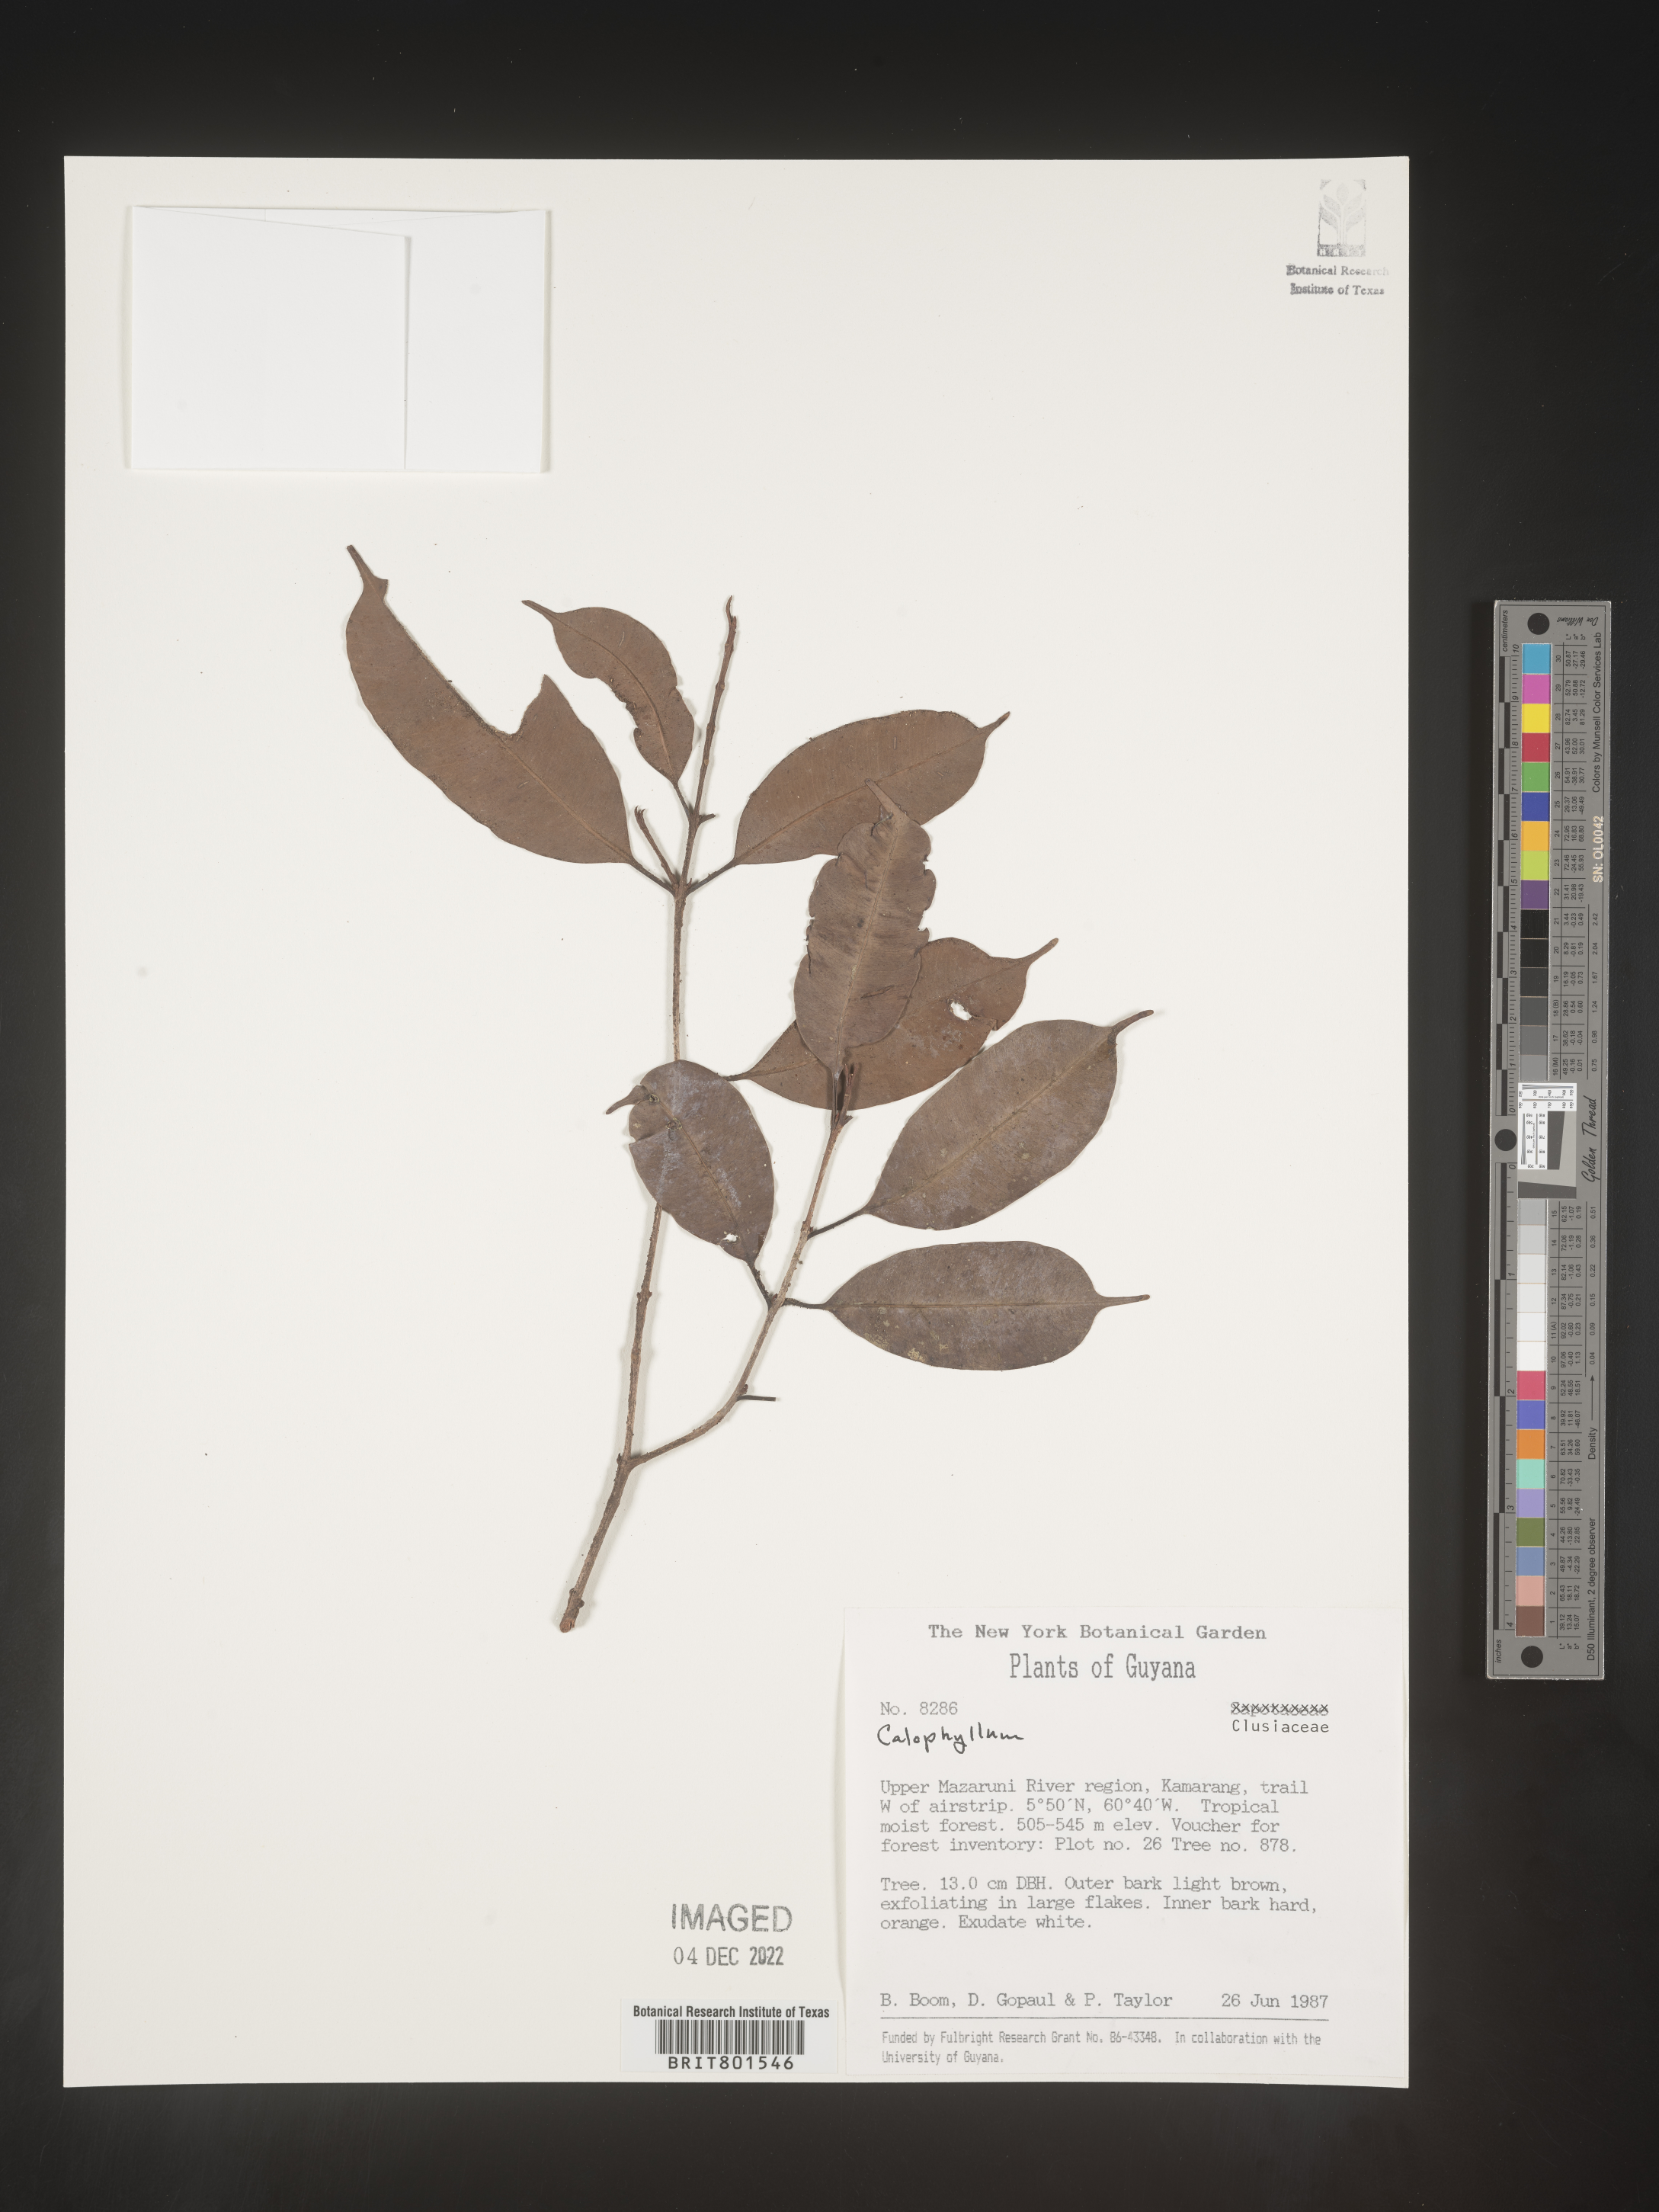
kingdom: Plantae
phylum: Tracheophyta
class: Magnoliopsida
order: Malpighiales
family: Calophyllaceae
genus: Calophyllum
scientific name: Calophyllum
